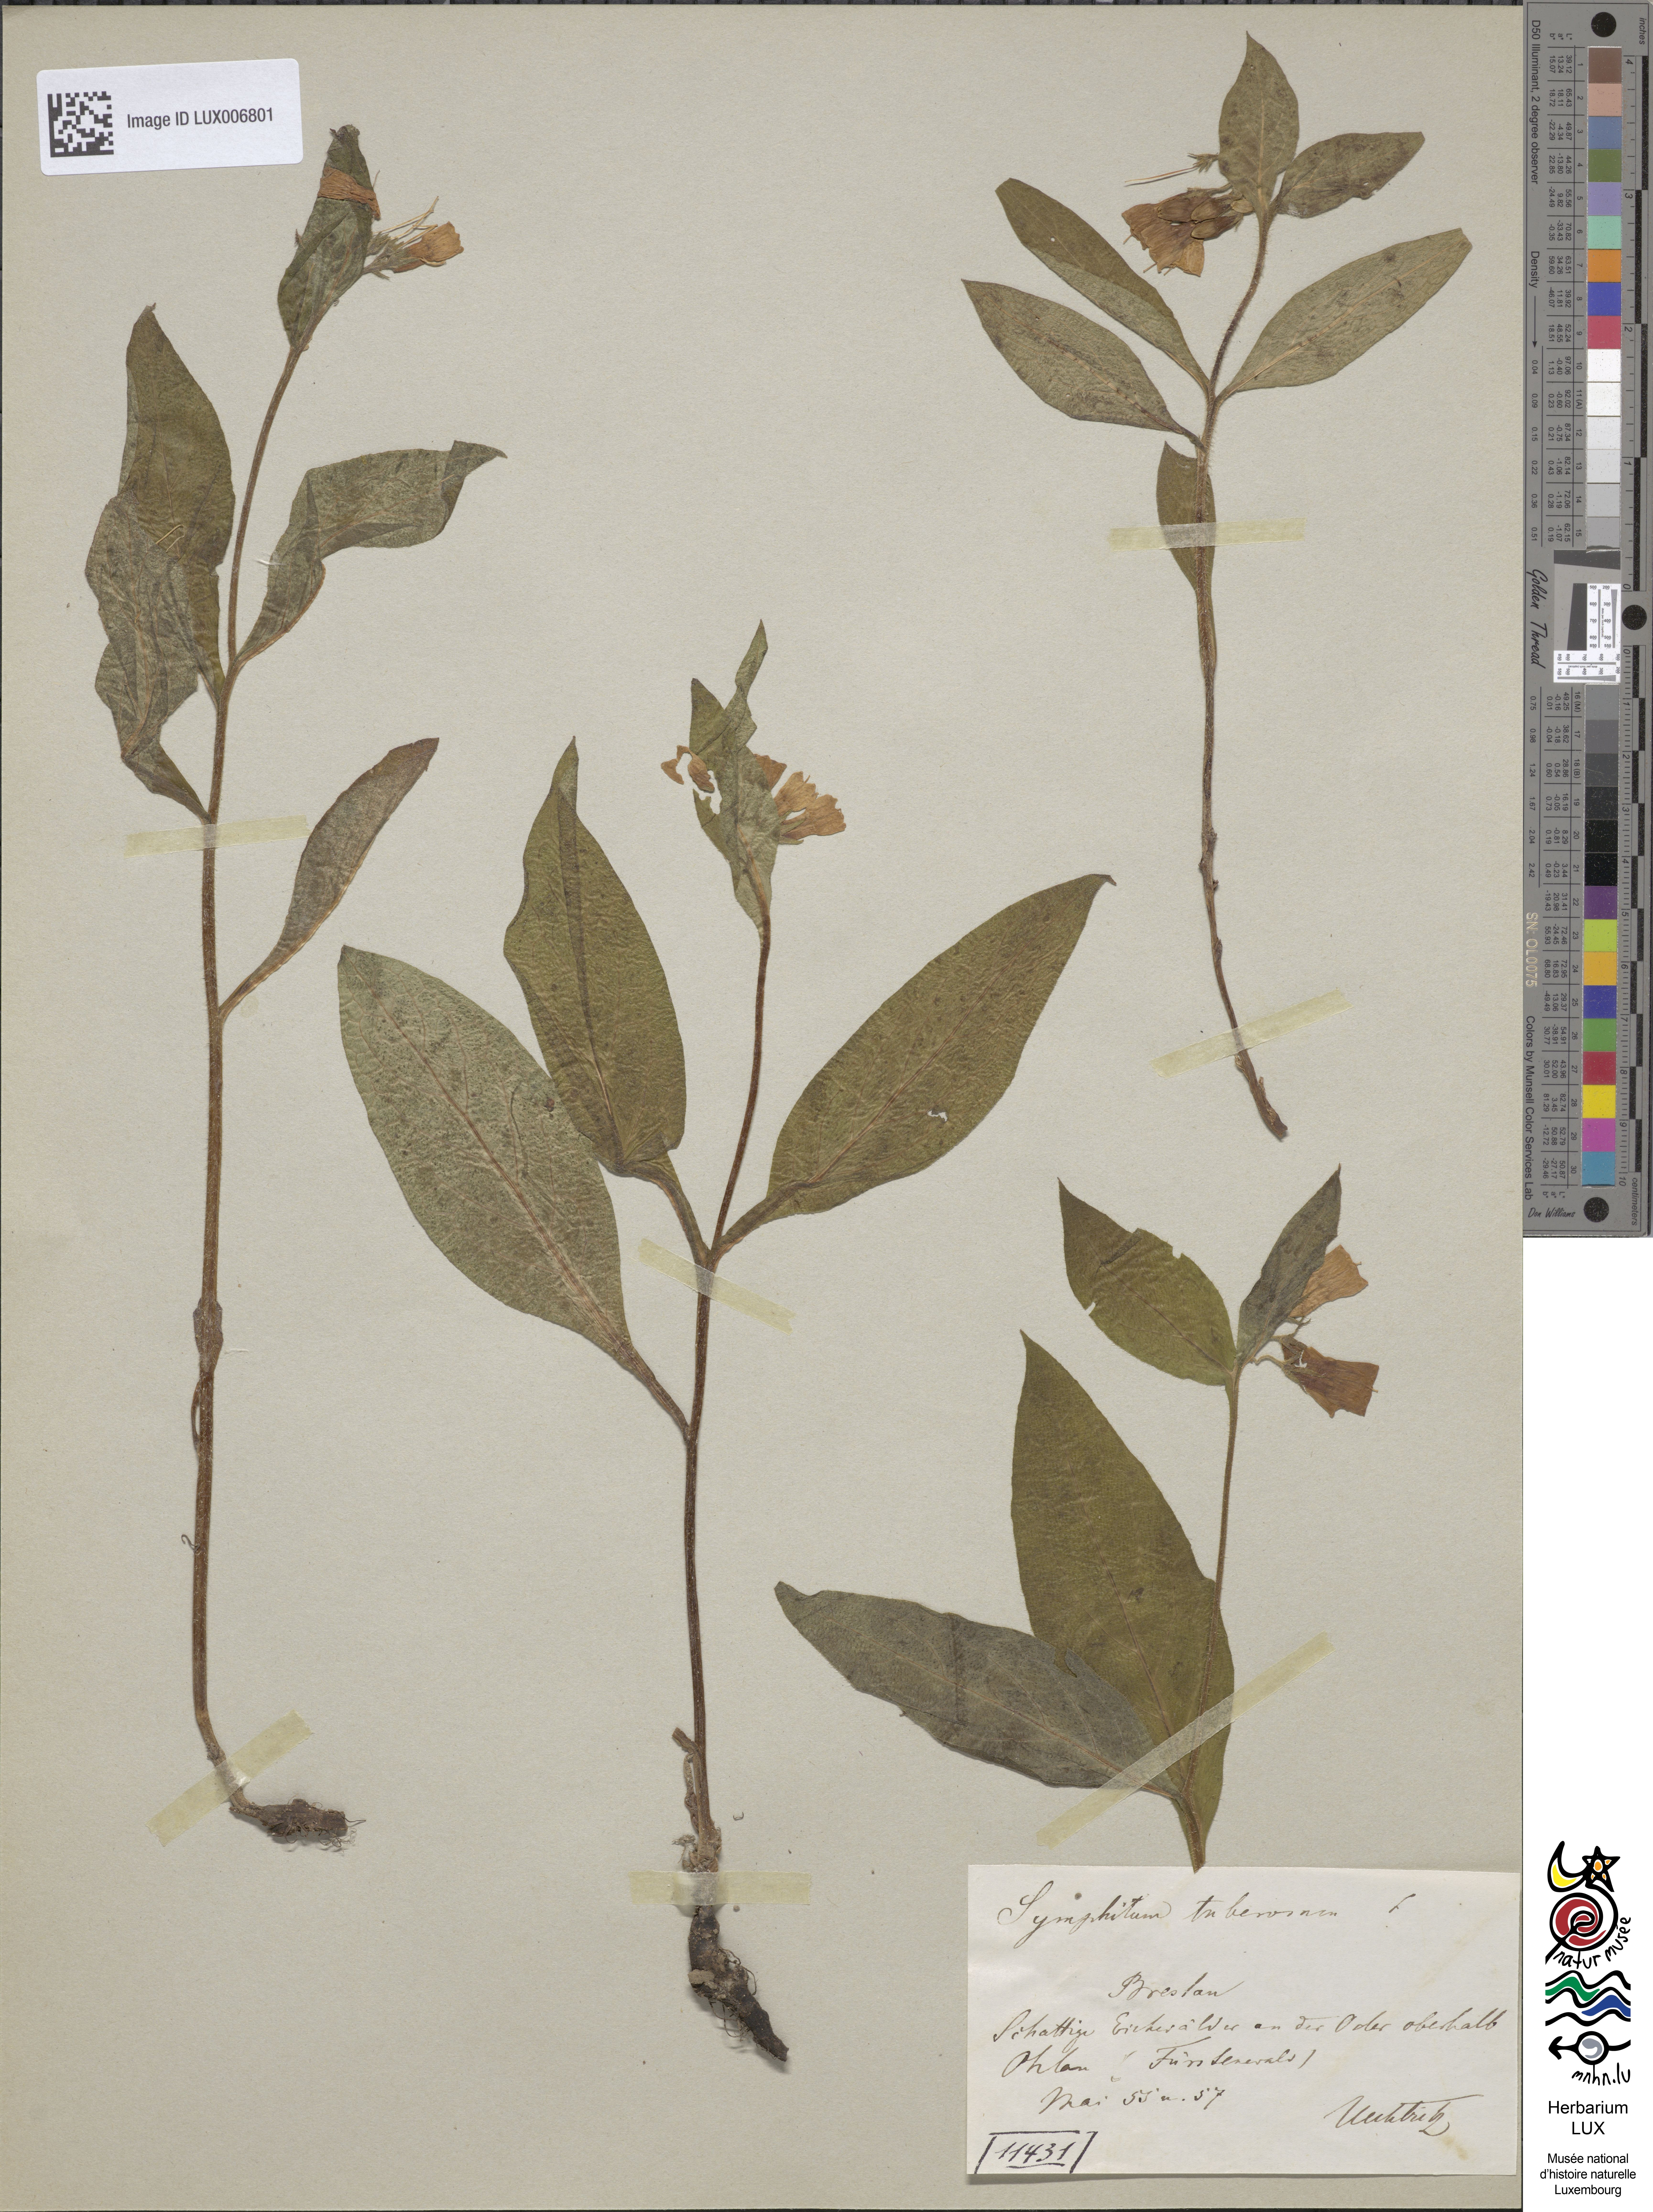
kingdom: Plantae
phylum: Tracheophyta
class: Magnoliopsida
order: Boraginales
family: Boraginaceae
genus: Symphytum
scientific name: Symphytum tuberosum
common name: Tuberous comfrey
